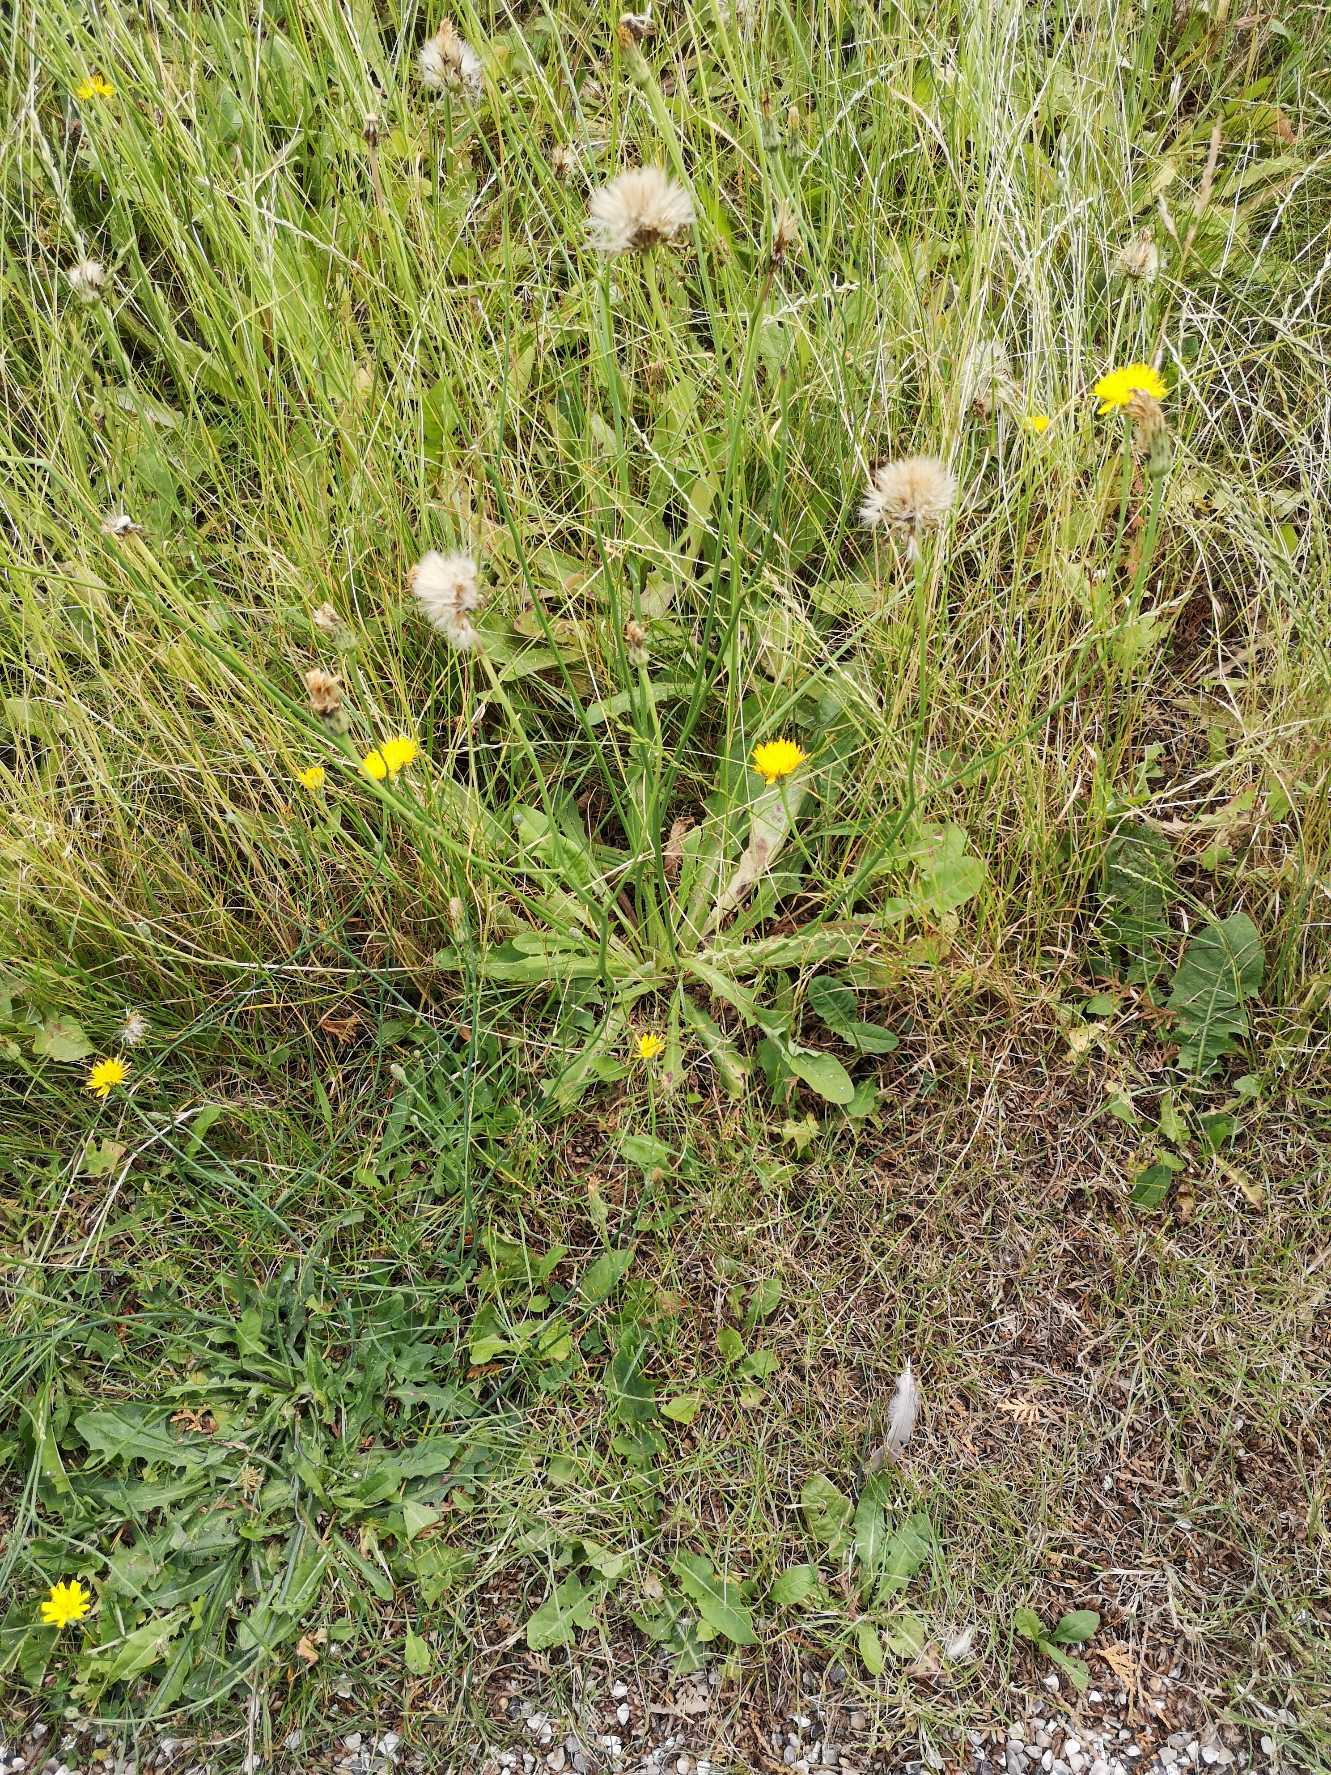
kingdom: Plantae
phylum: Tracheophyta
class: Magnoliopsida
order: Asterales
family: Asteraceae
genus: Hypochaeris
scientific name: Hypochaeris radicata
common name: Almindelig kongepen
